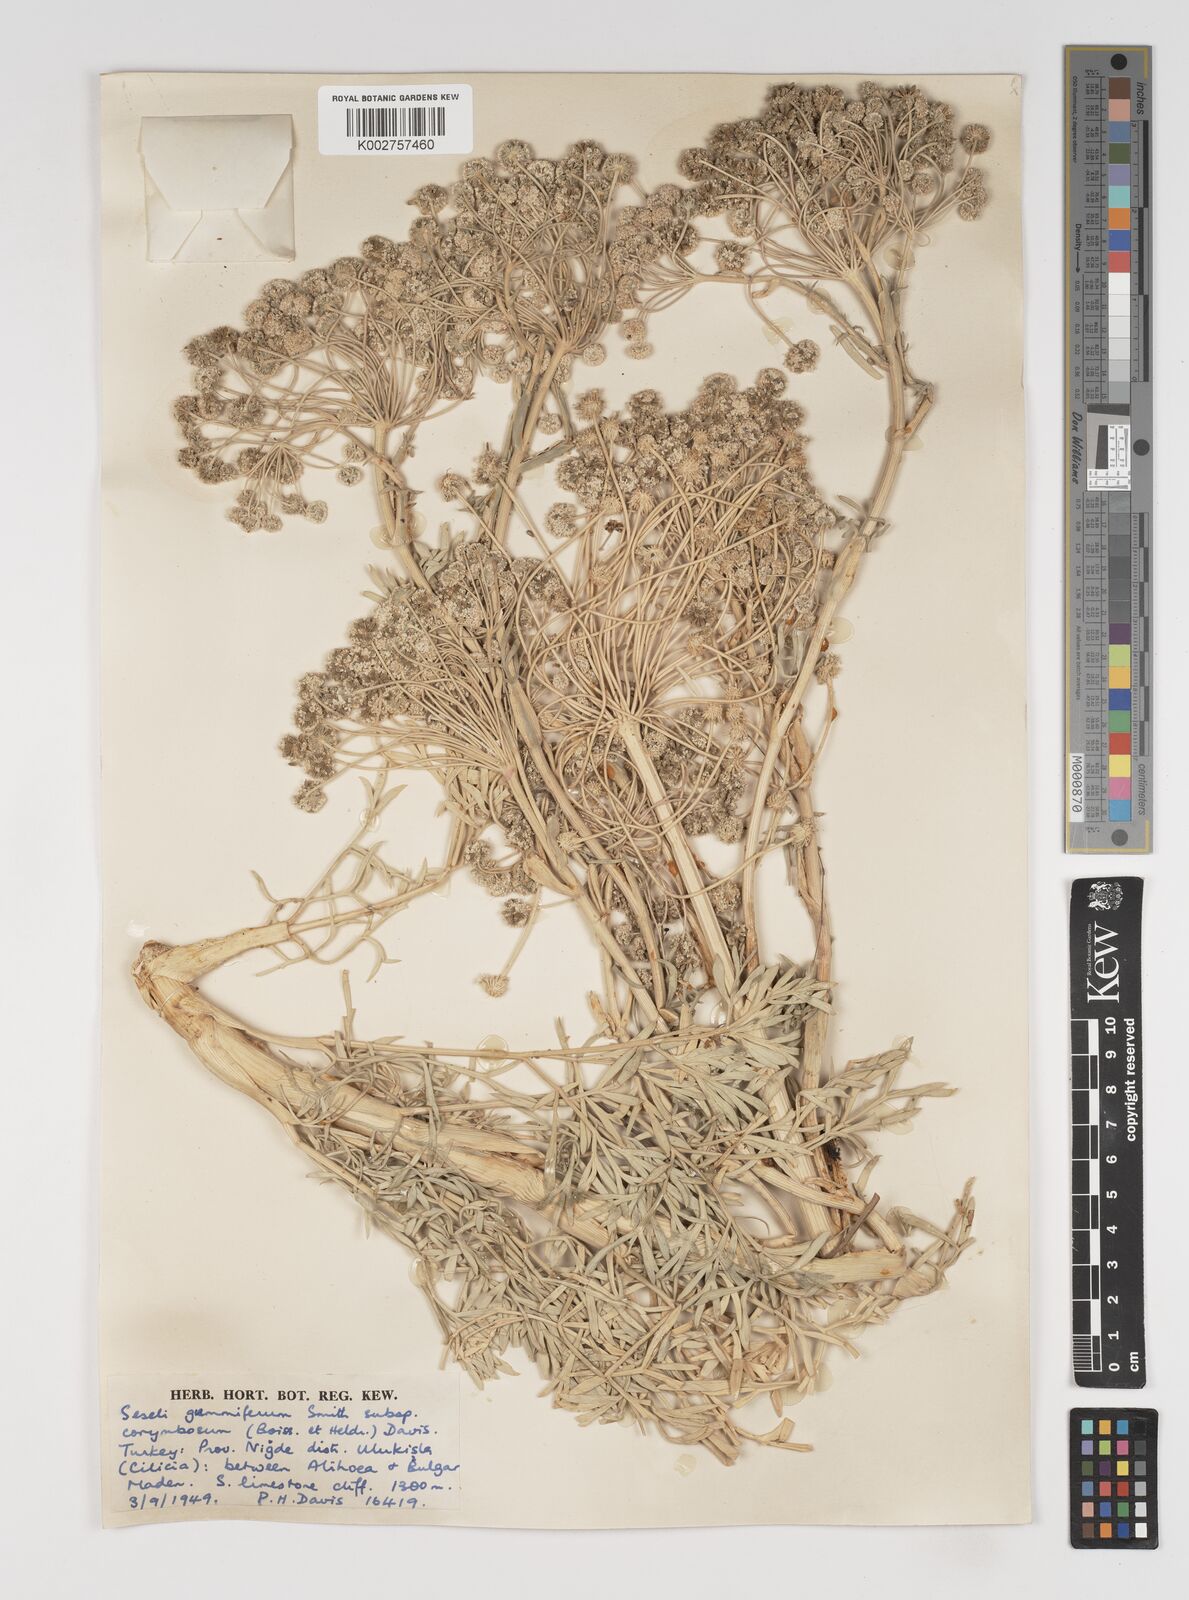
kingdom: Plantae
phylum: Tracheophyta
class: Magnoliopsida
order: Apiales
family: Apiaceae
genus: Seseli
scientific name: Seseli gummiferum
